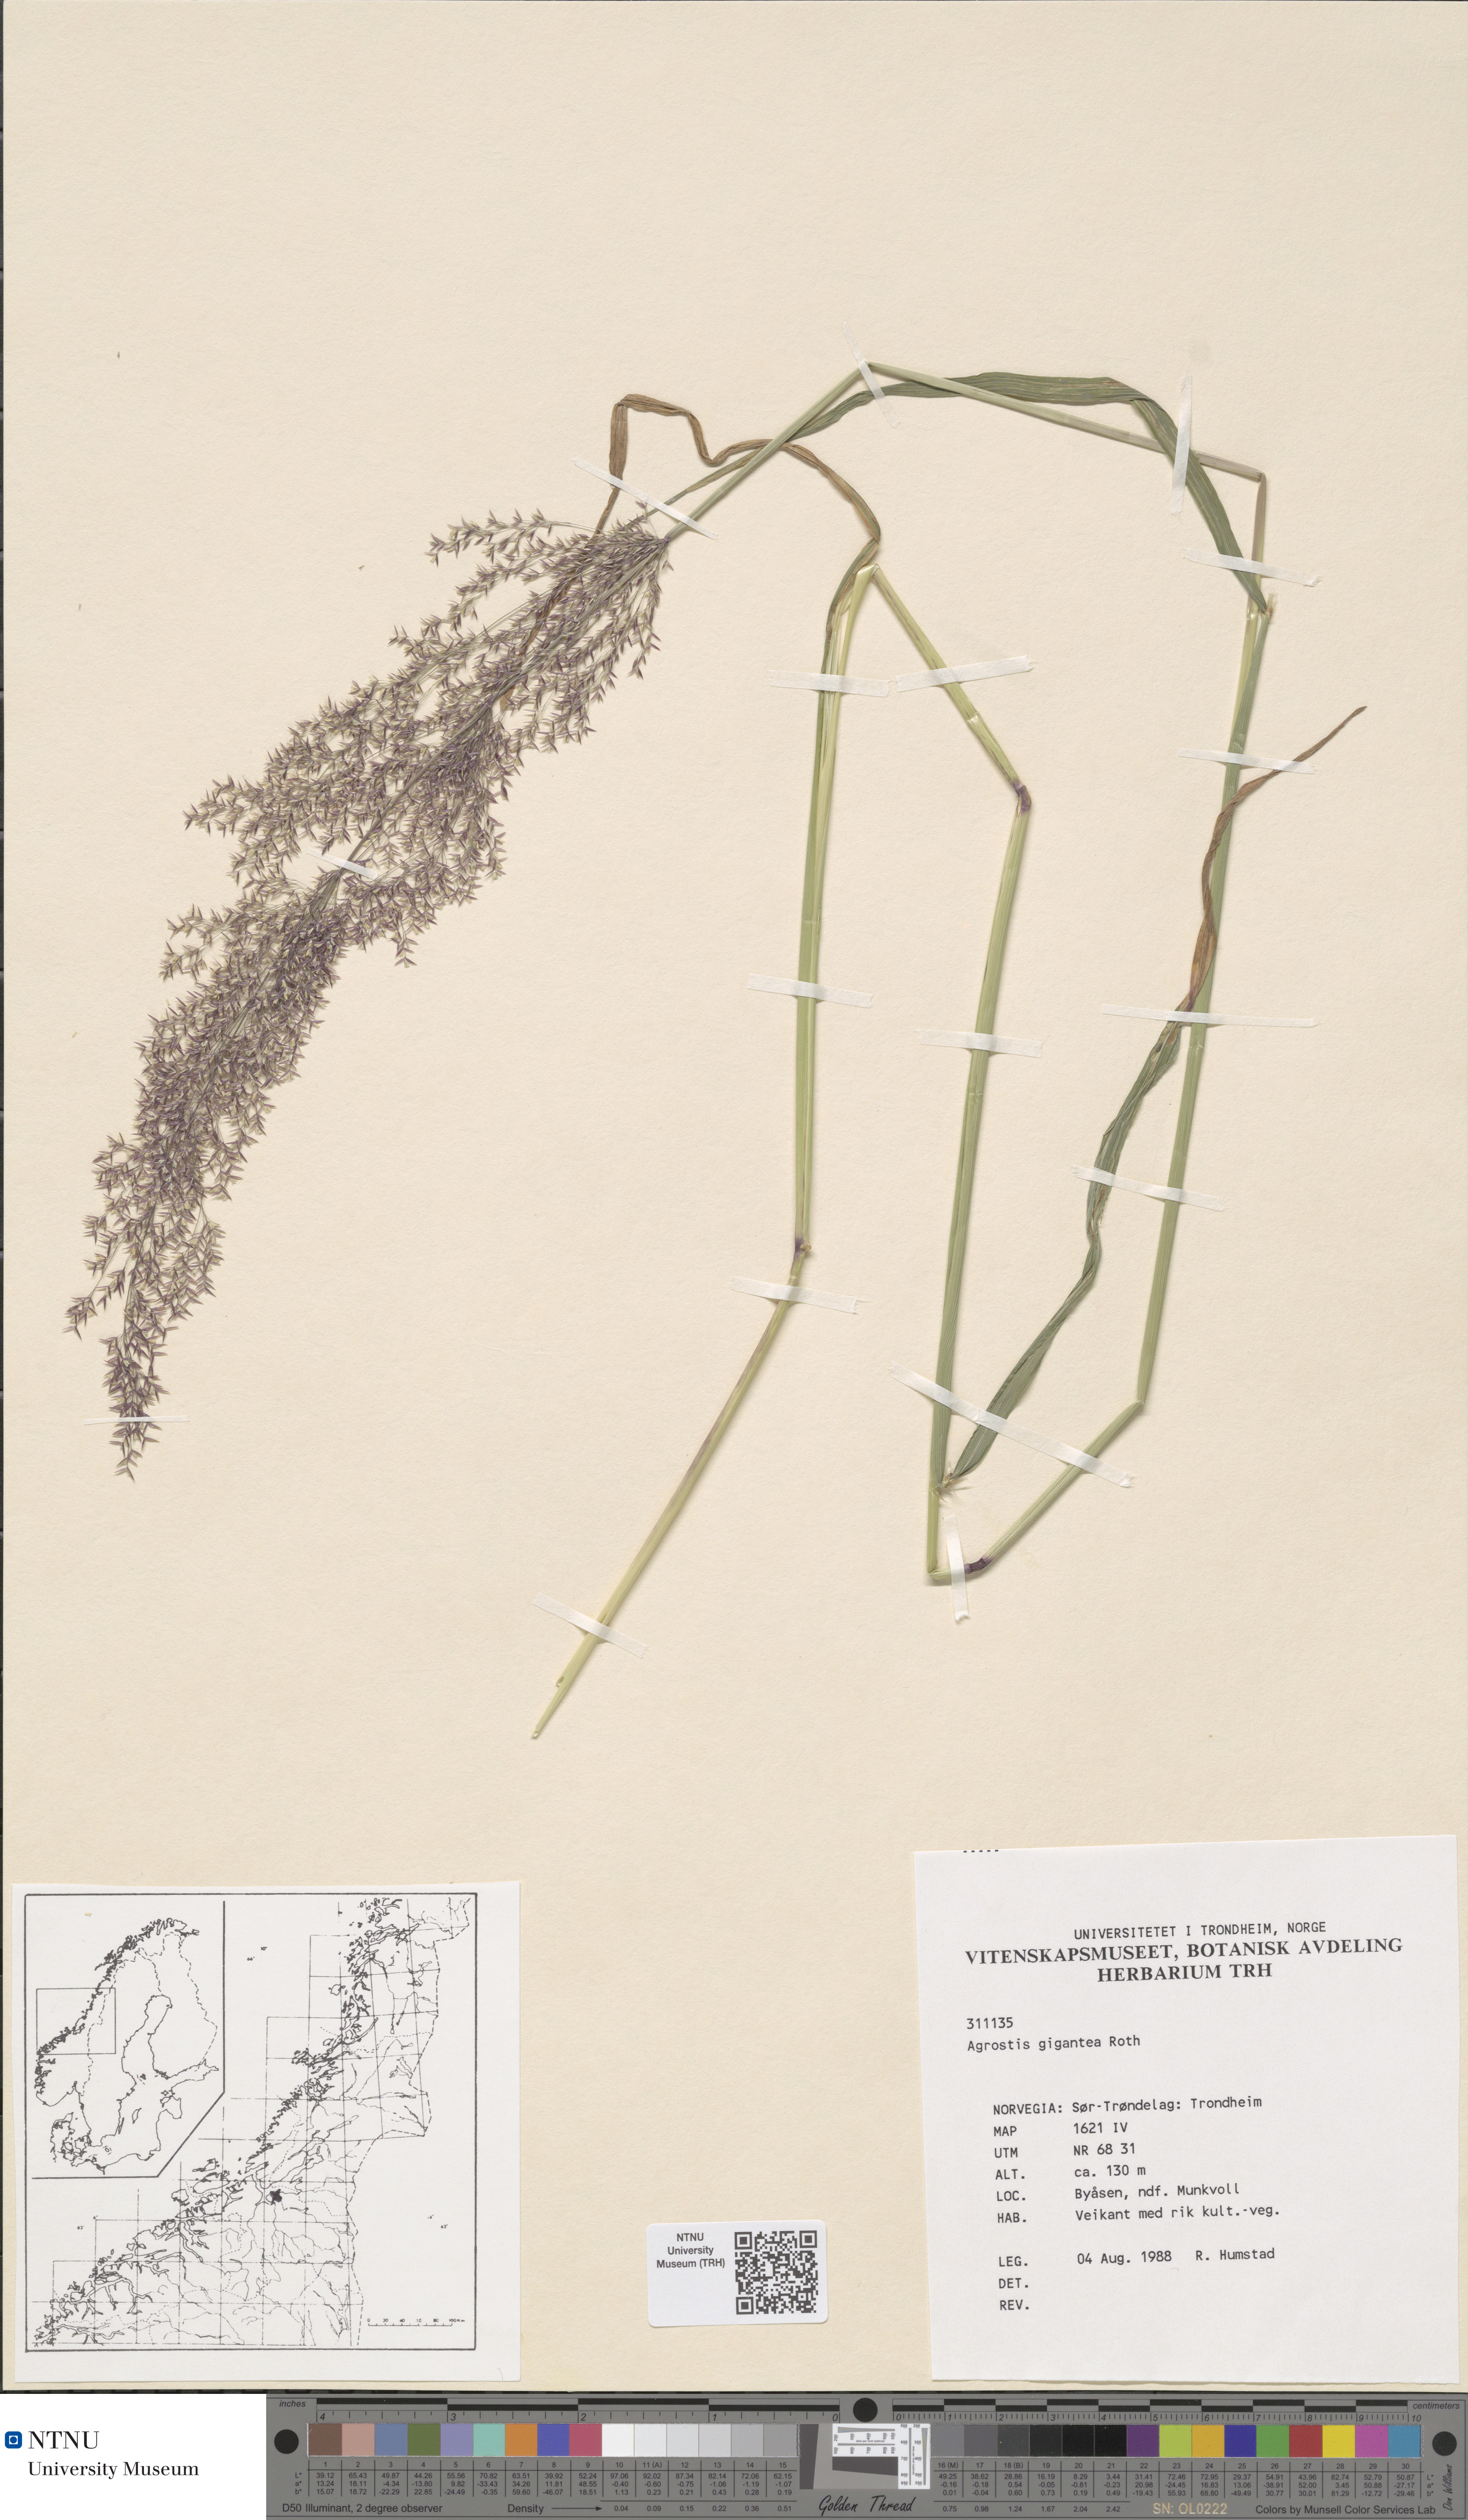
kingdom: Plantae
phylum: Tracheophyta
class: Liliopsida
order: Poales
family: Poaceae
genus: Agrostis
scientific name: Agrostis gigantea
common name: Black bent
